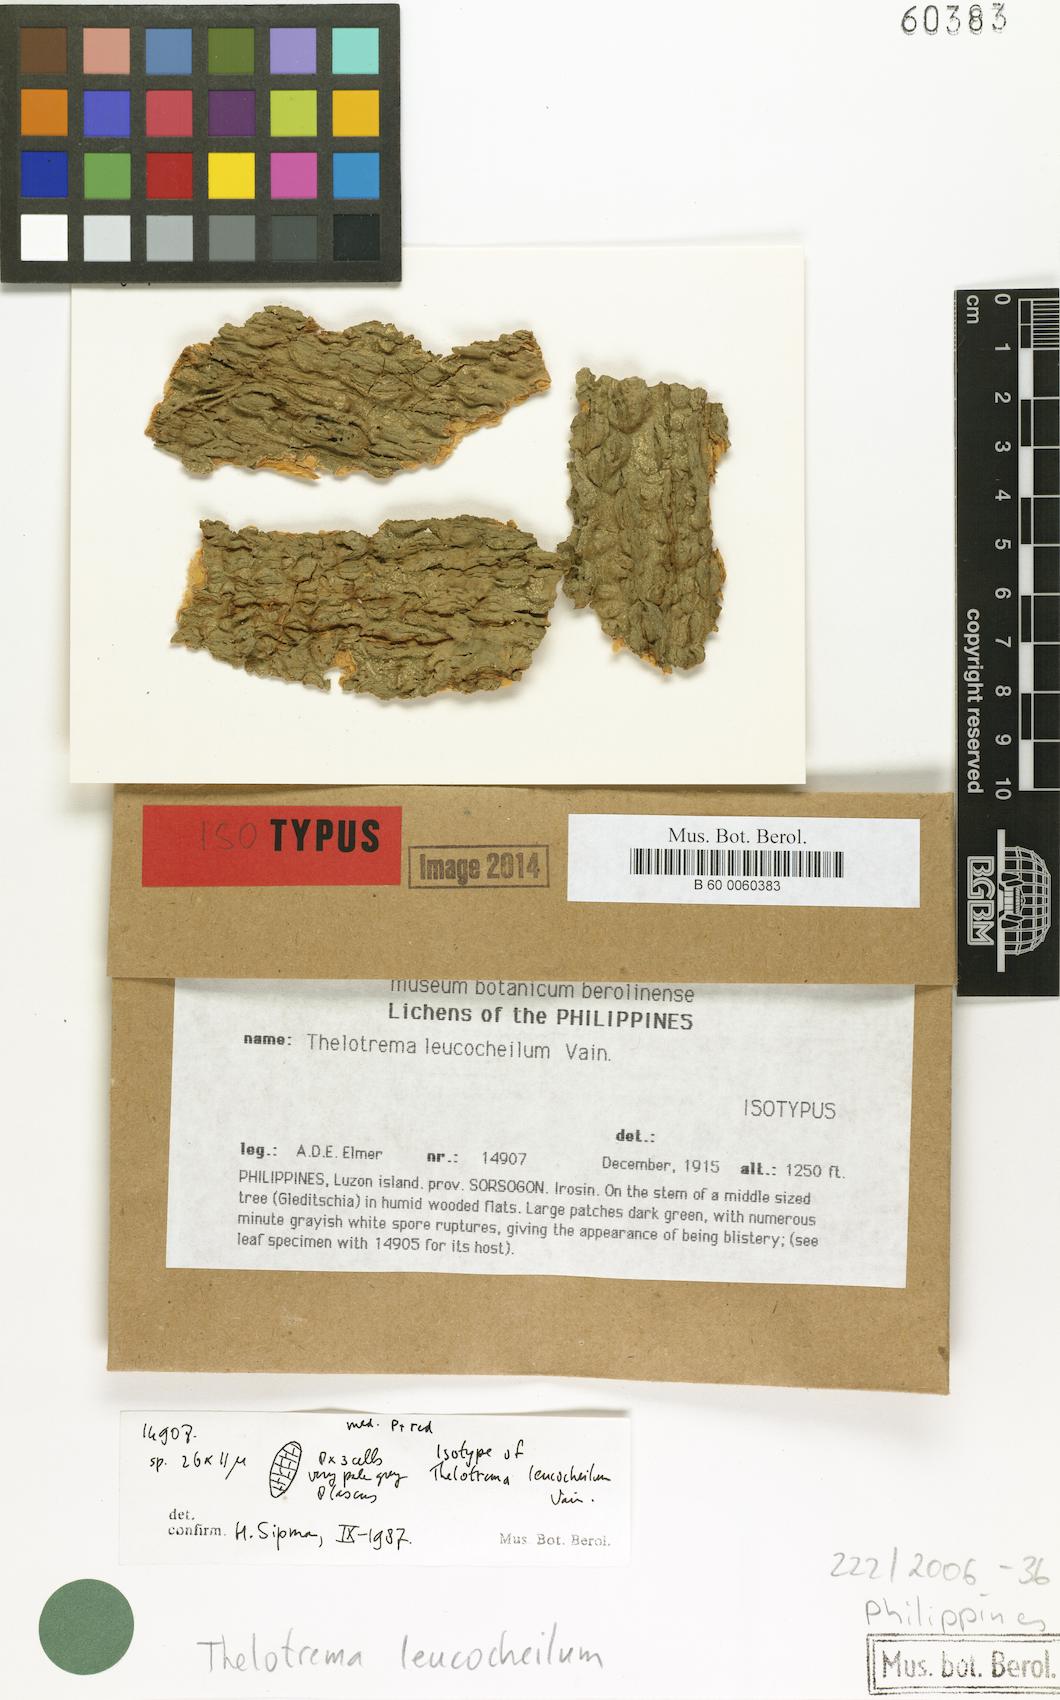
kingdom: Fungi
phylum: Ascomycota
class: Lecanoromycetes
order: Ostropales
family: Graphidaceae
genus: Thelotrema
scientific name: Thelotrema leucocheilum
